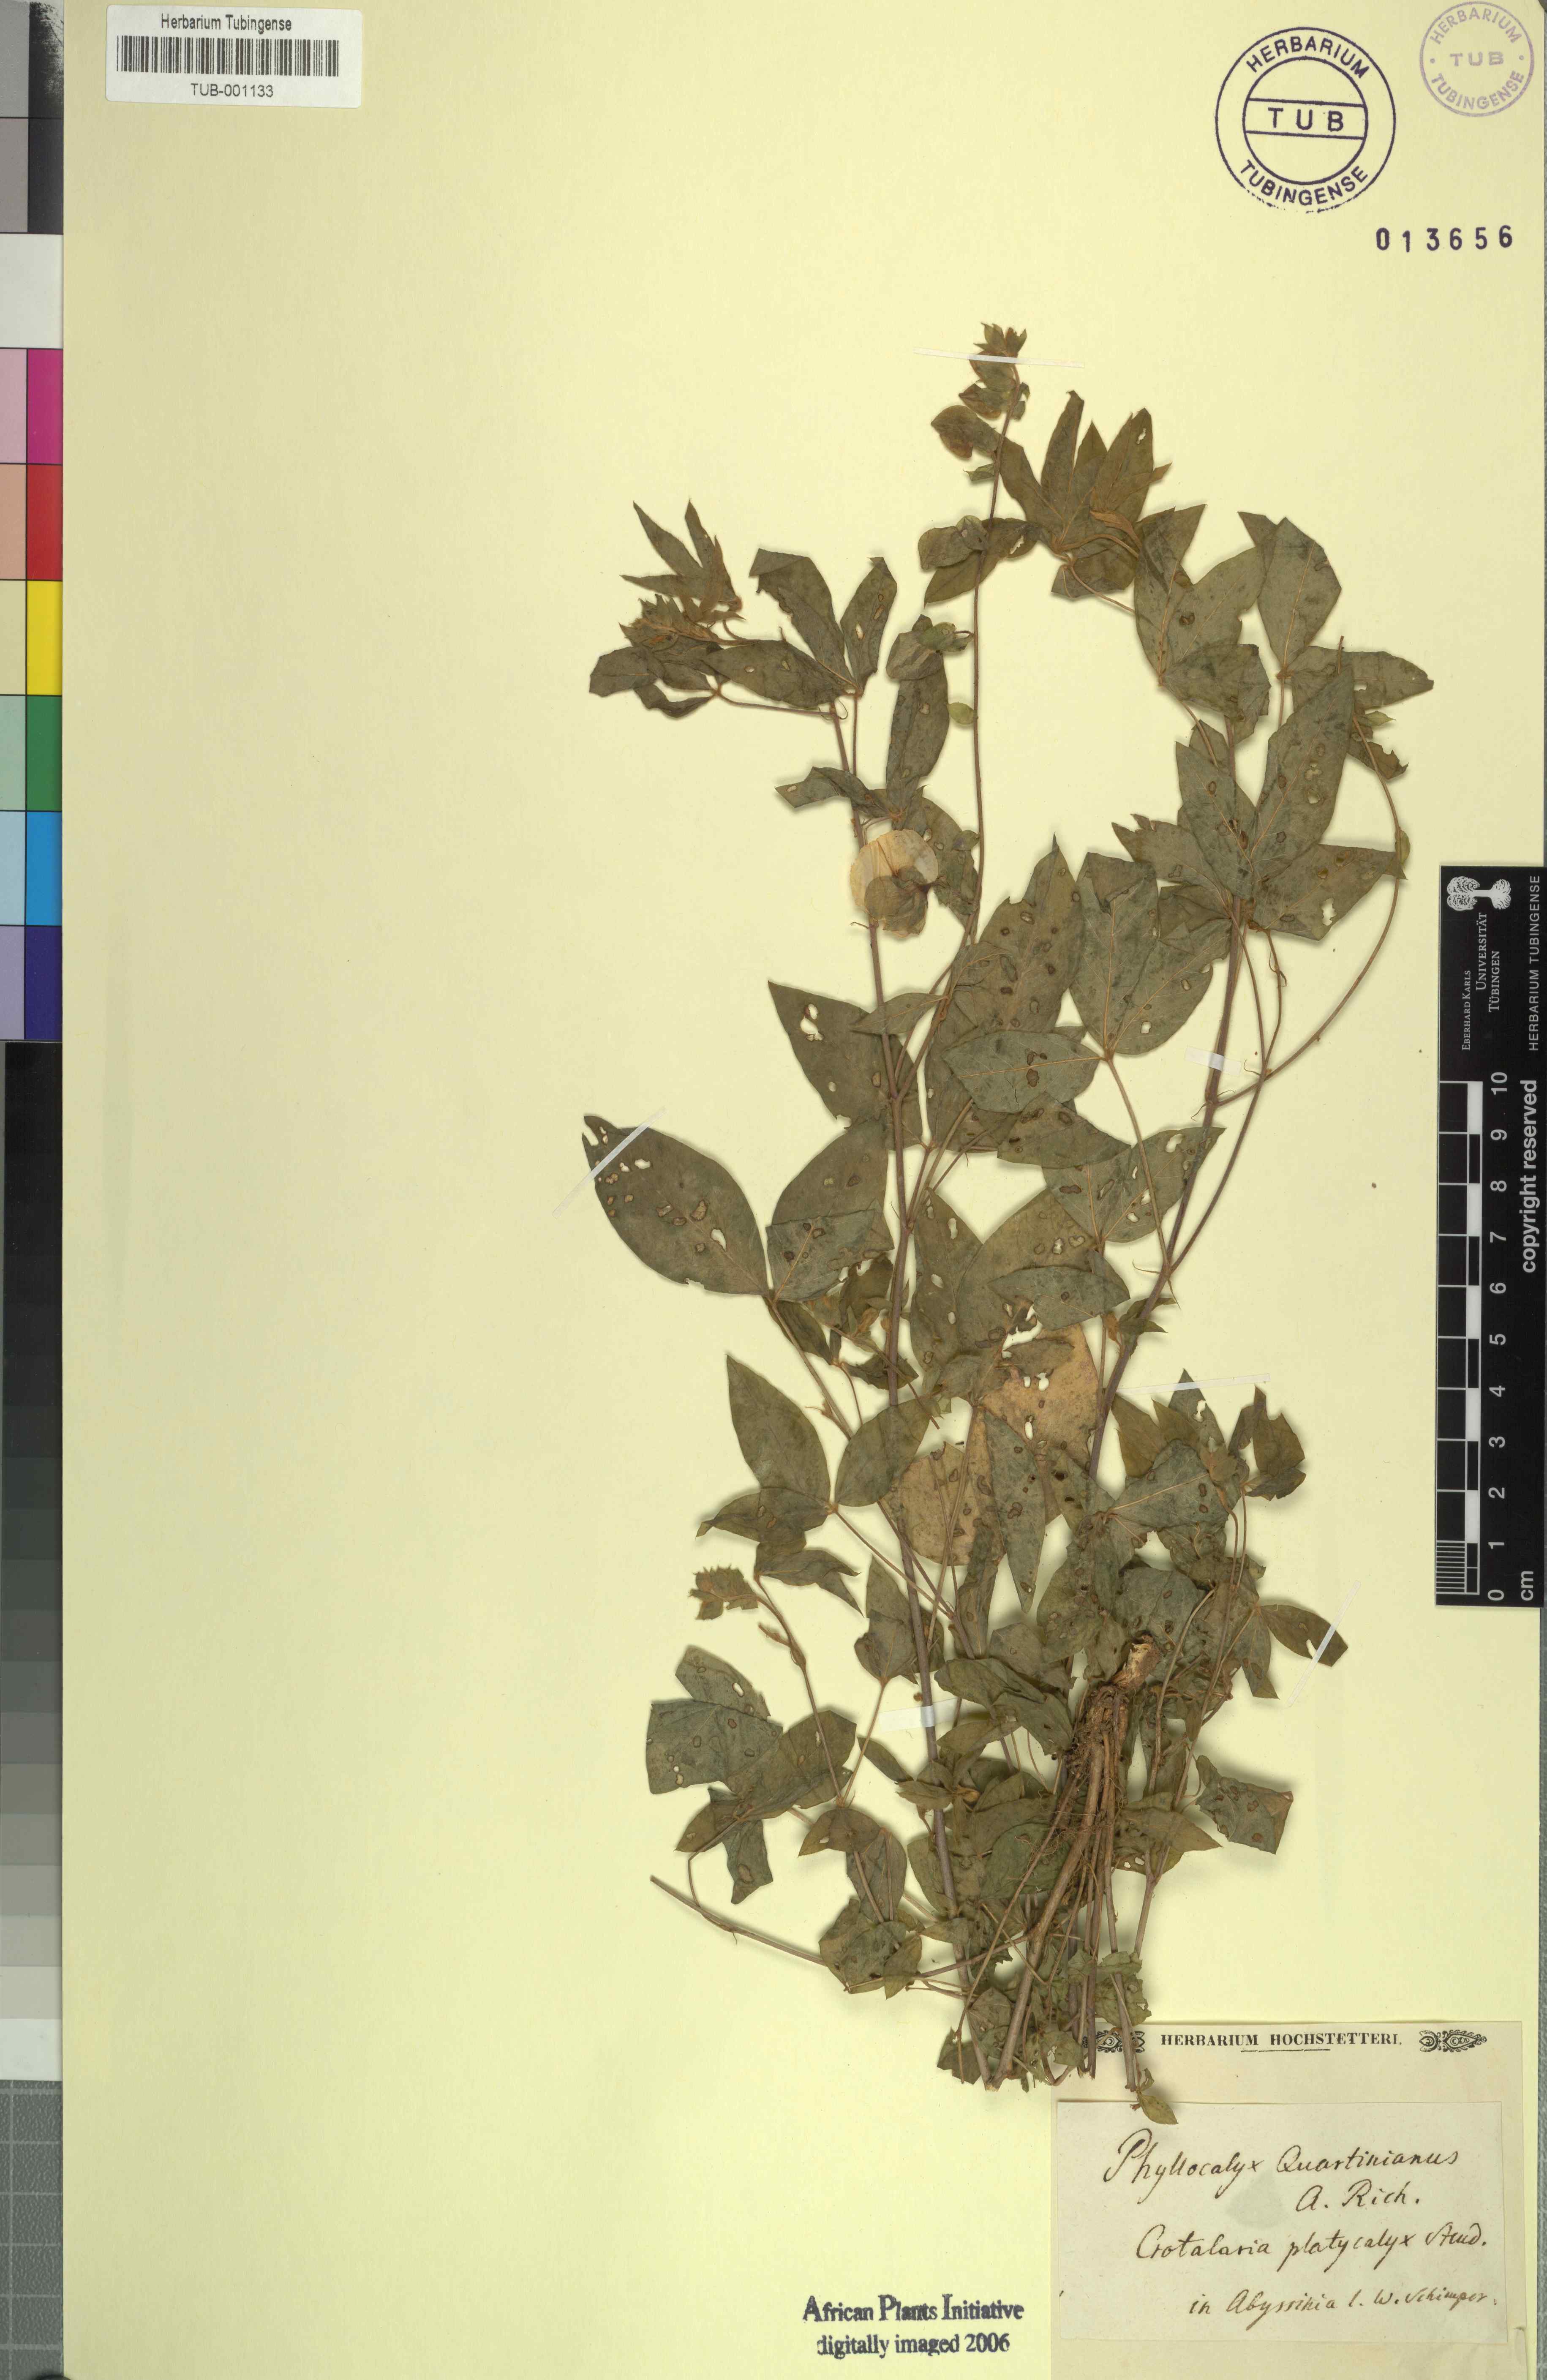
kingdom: Plantae
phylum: Tracheophyta
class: Magnoliopsida
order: Fabales
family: Fabaceae
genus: Crotalaria
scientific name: Crotalaria quartiniana
